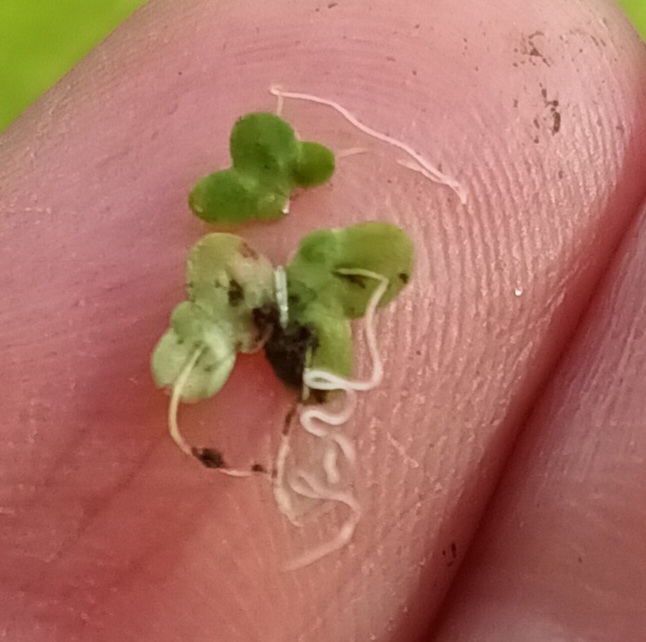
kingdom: Plantae
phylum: Tracheophyta
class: Liliopsida
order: Alismatales
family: Araceae
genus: Lemna
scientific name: Lemna minor
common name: Liden andemad
